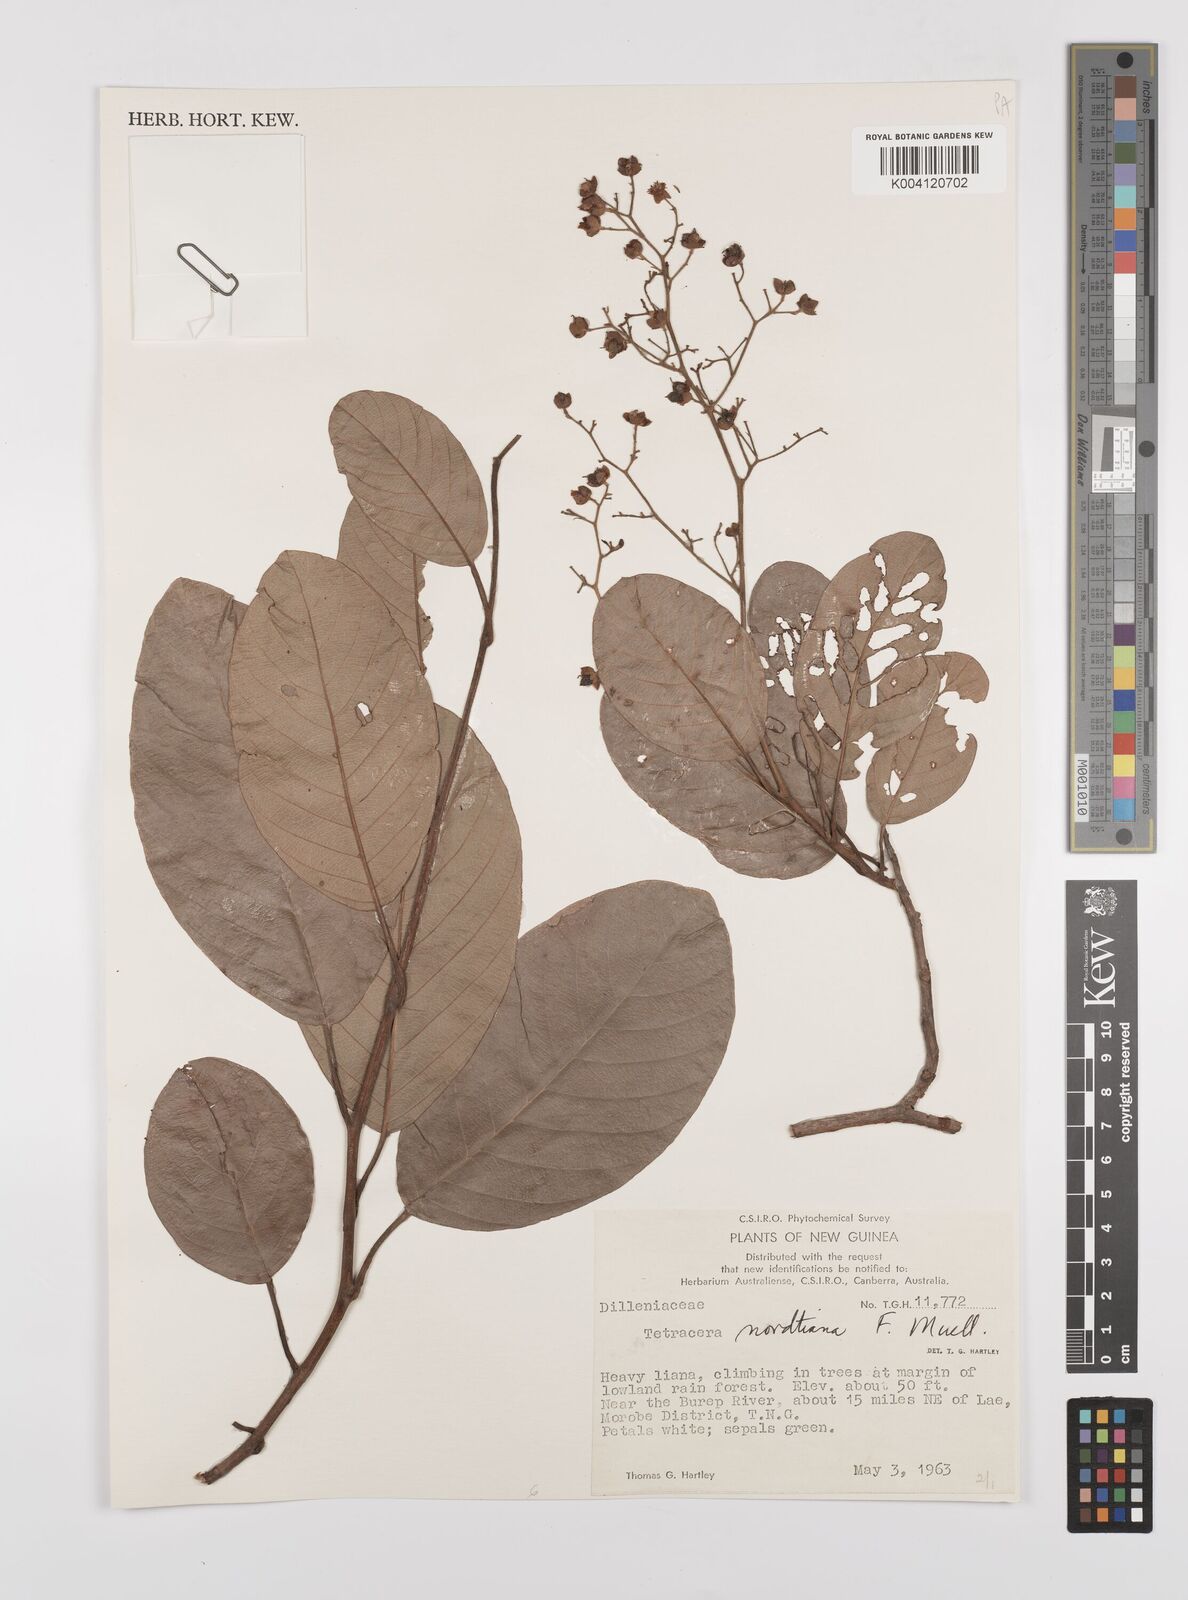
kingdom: Plantae
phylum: Tracheophyta
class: Magnoliopsida
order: Dilleniales
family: Dilleniaceae
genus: Tetracera
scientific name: Tetracera nordtiana
